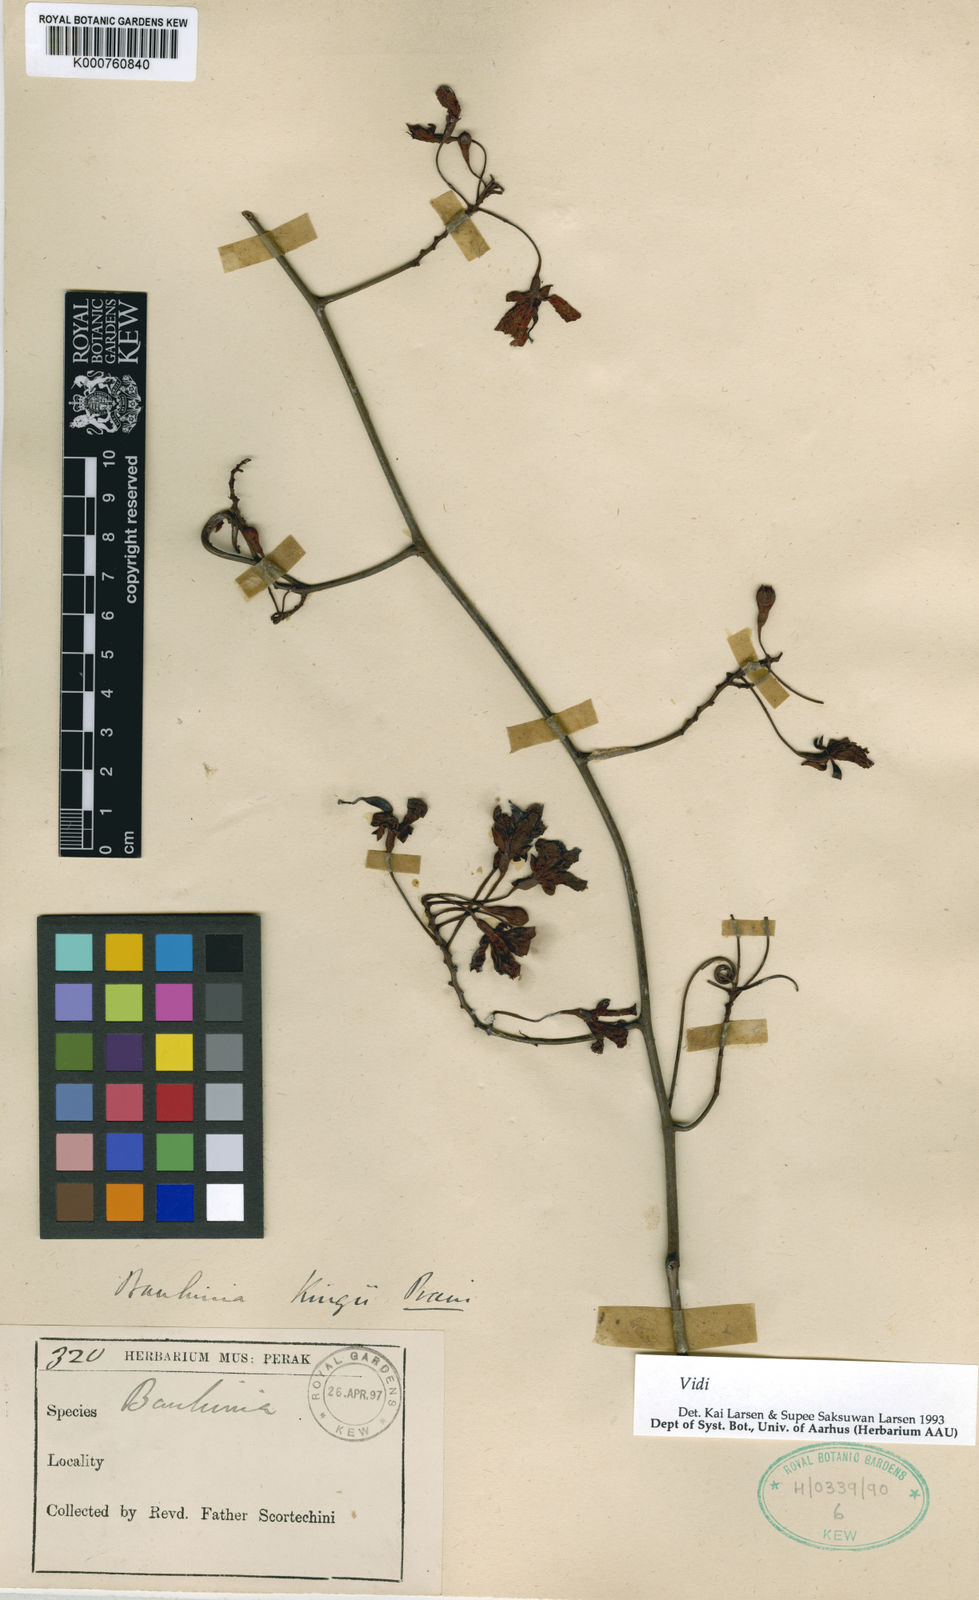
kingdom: Plantae
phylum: Tracheophyta
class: Magnoliopsida
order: Fabales
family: Fabaceae
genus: Bauhinia
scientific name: Bauhinia
